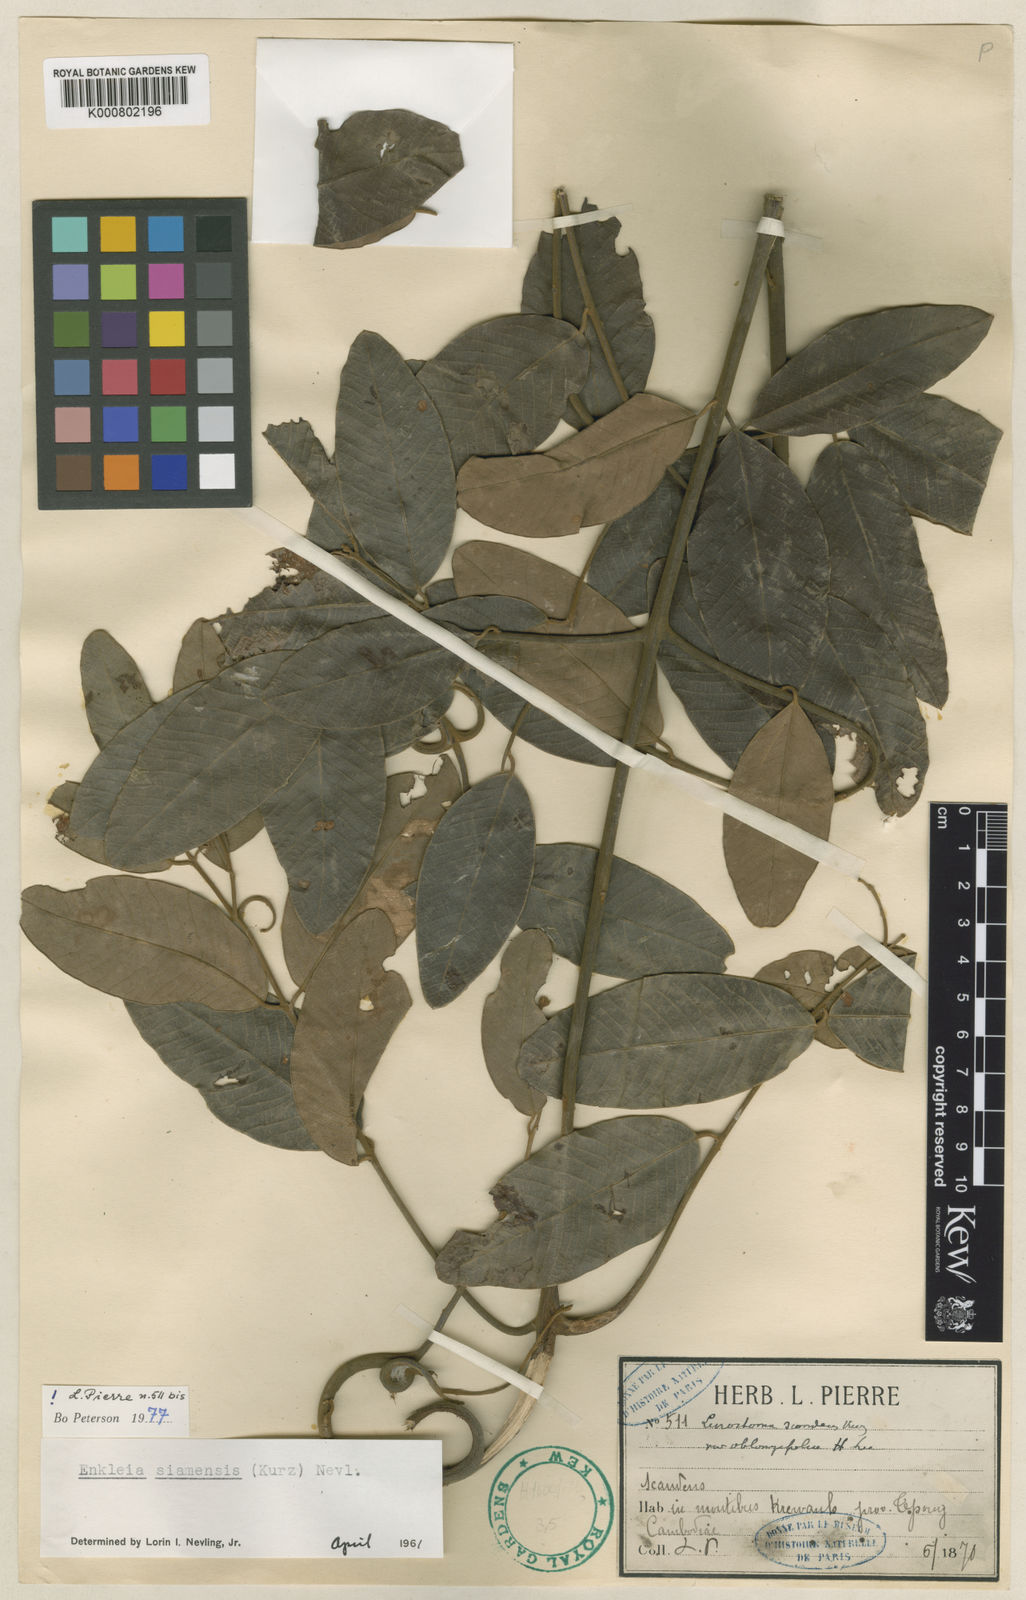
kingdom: Plantae
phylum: Tracheophyta
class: Magnoliopsida
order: Malvales
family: Thymelaeaceae
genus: Enkleia
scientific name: Enkleia malaccensis
